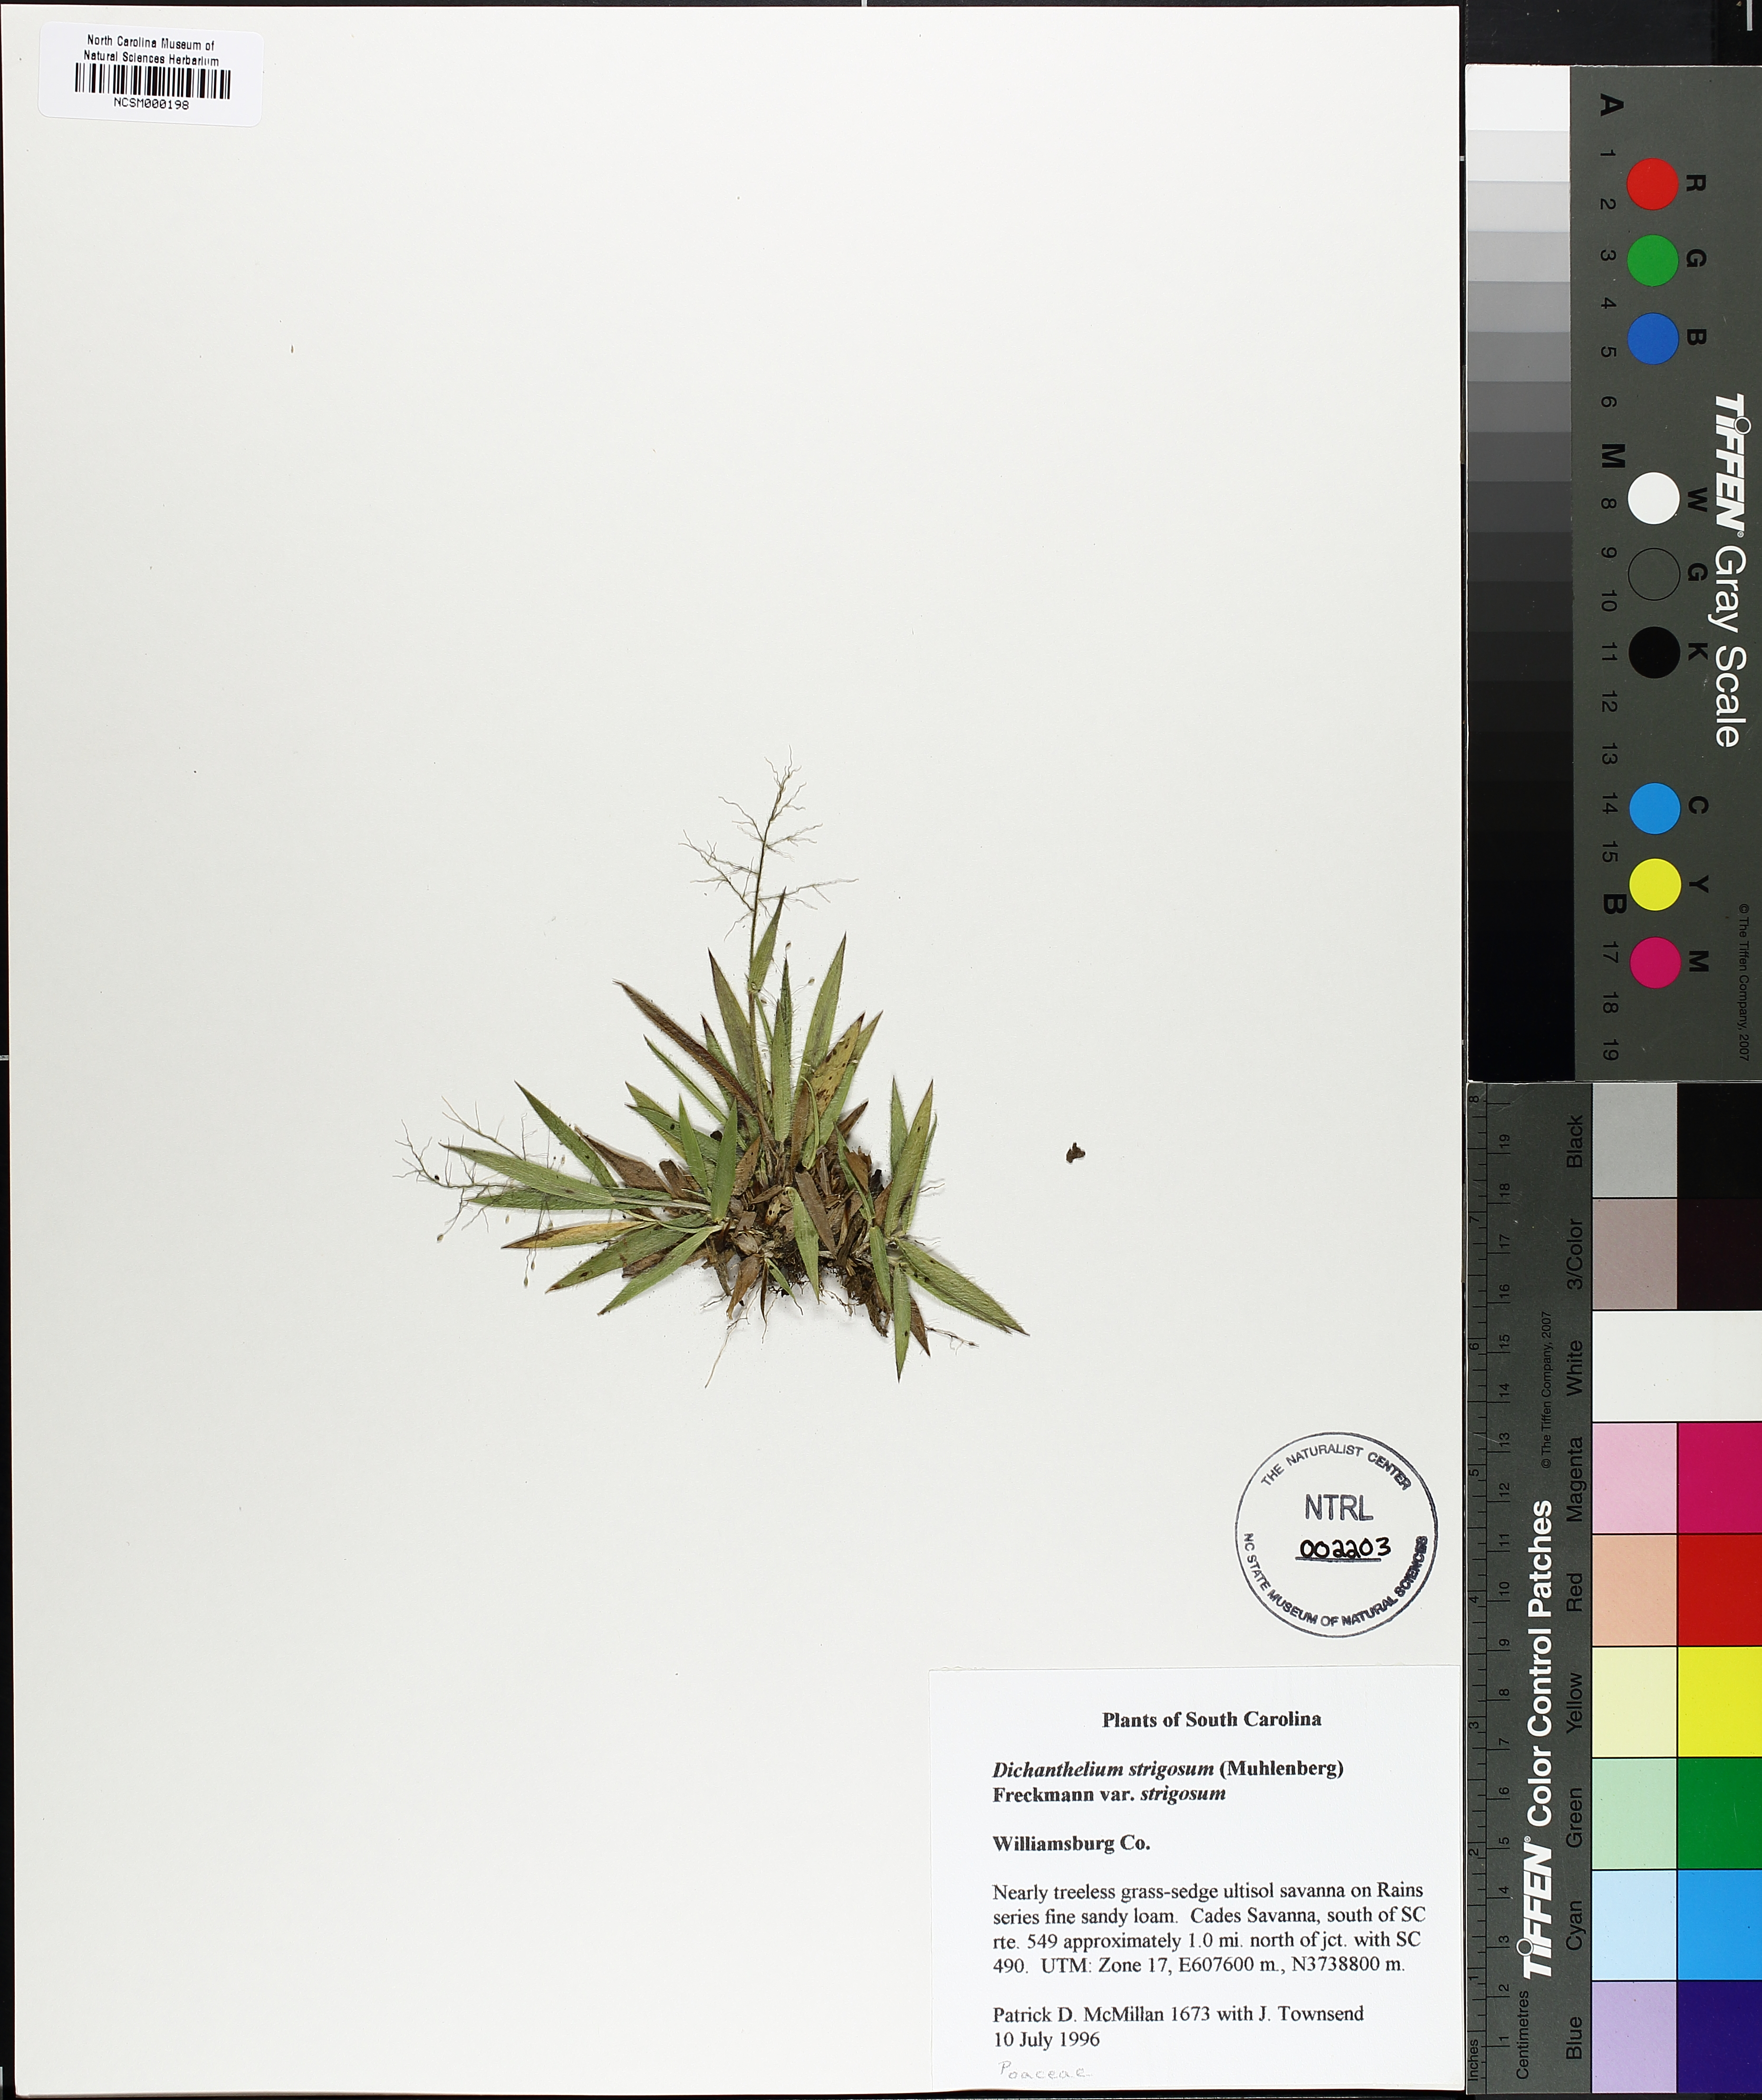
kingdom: Plantae
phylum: Tracheophyta
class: Liliopsida
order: Poales
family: Poaceae
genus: Dichanthelium
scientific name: Dichanthelium strigosum
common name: Cushion-tuft panic grass
